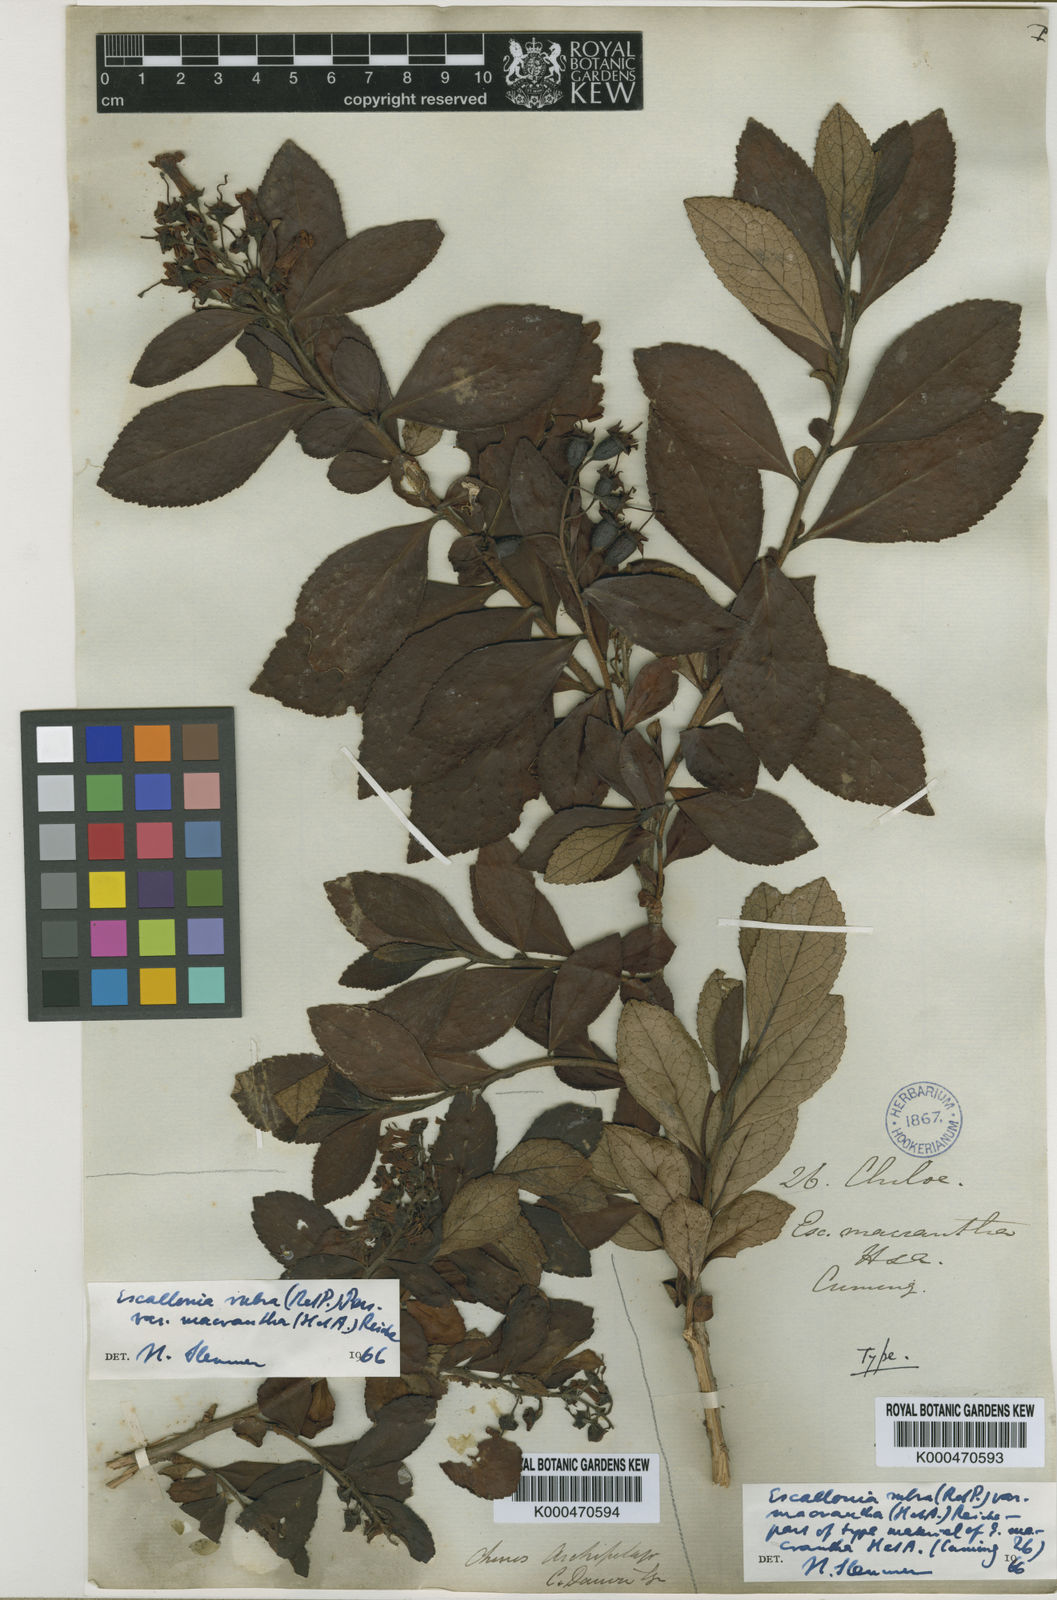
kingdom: Plantae
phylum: Tracheophyta
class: Magnoliopsida
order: Escalloniales
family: Escalloniaceae
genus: Escallonia
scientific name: Escallonia rubra
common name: Redclaws
